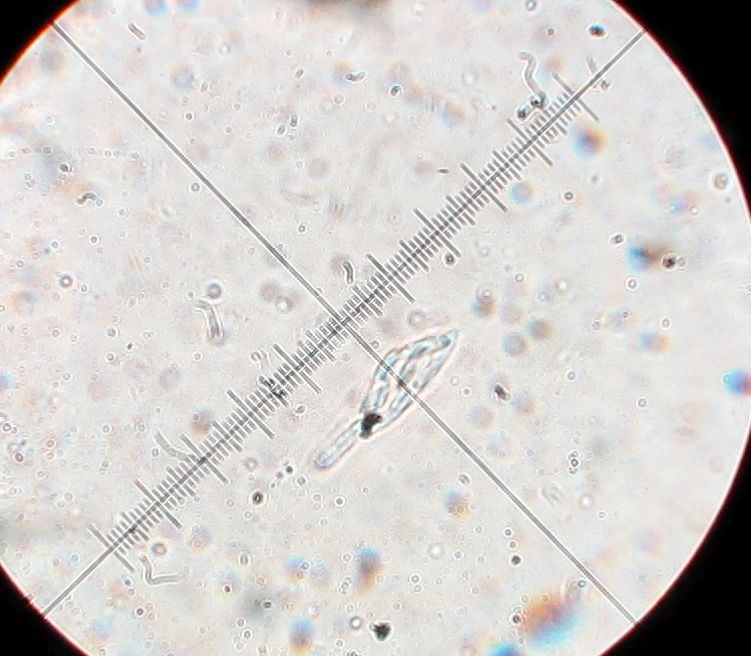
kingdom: Fungi
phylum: Ascomycota
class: Sordariomycetes
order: Diaporthales
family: Valsaceae
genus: Cytospora
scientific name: Cytospora
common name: kulknippe
